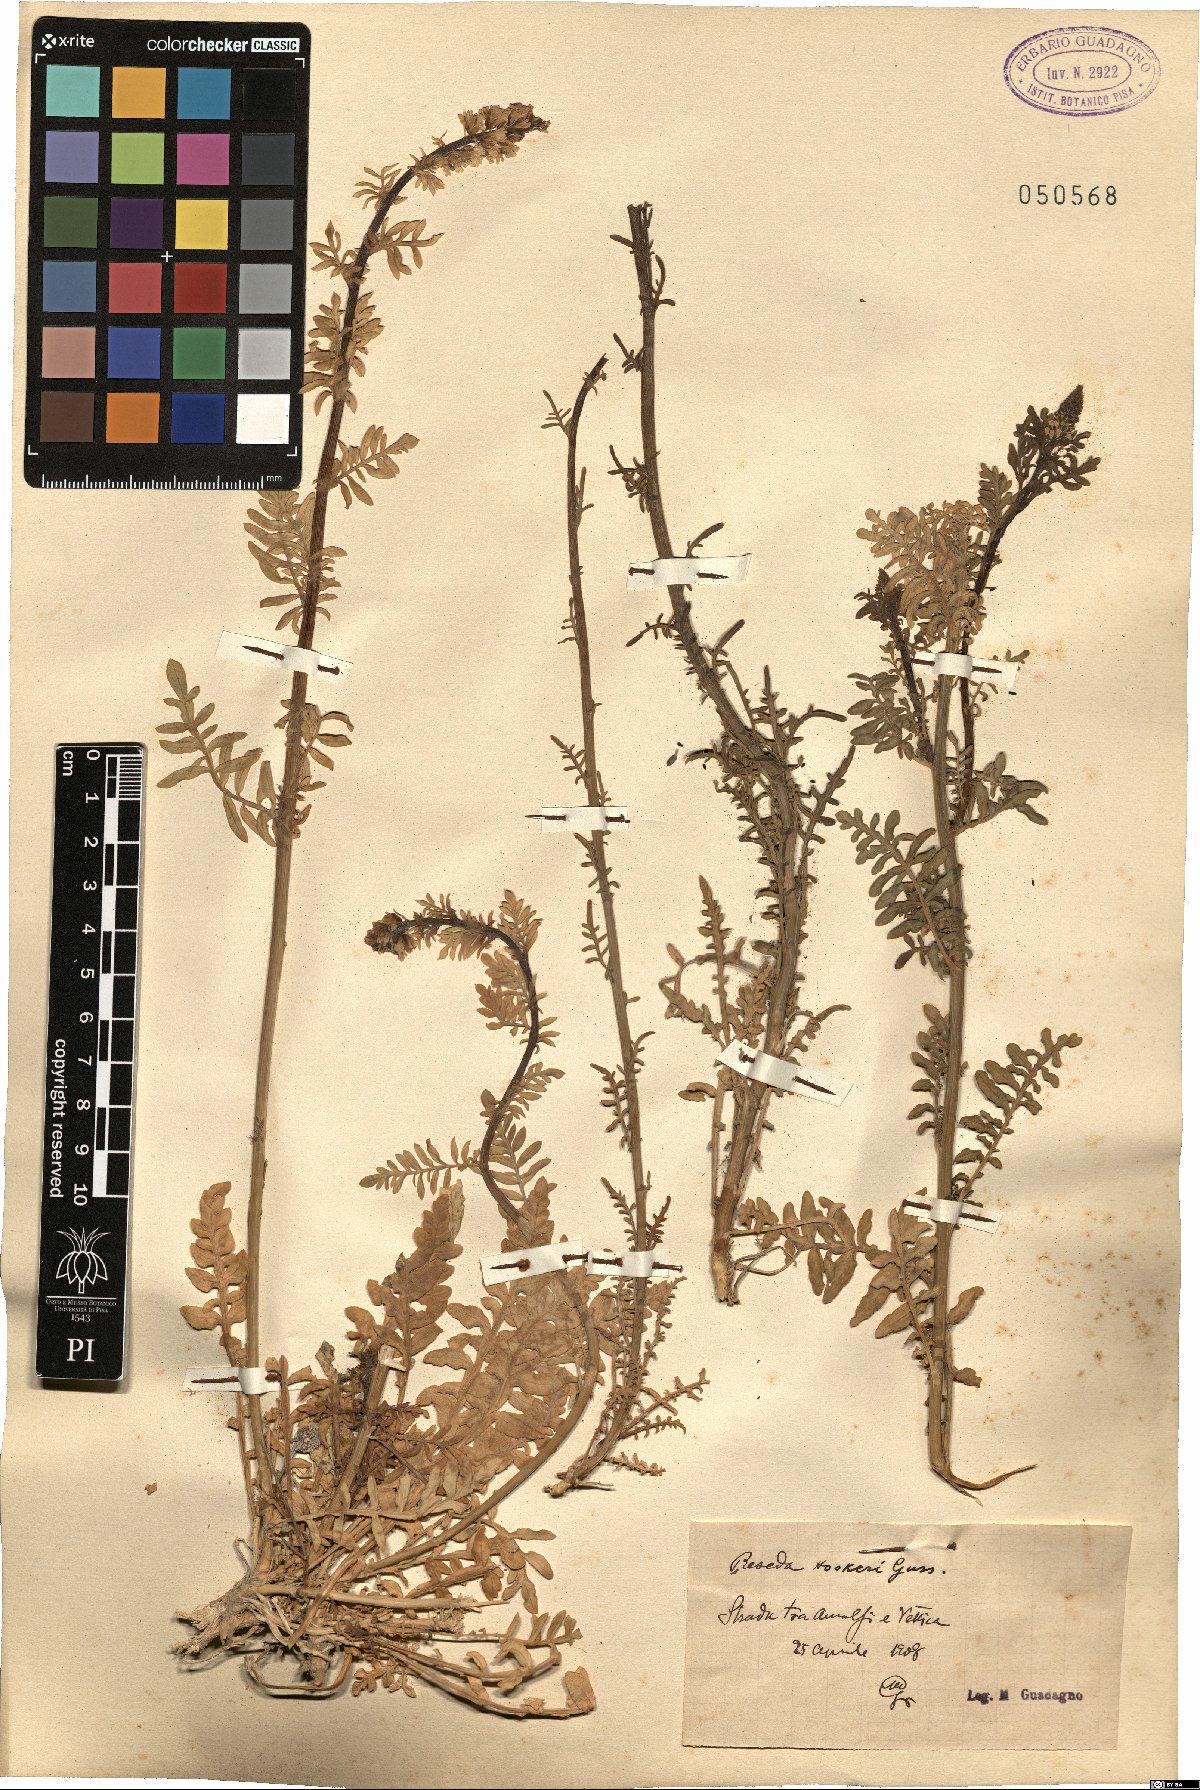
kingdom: Plantae
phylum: Tracheophyta
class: Magnoliopsida
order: Brassicales
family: Resedaceae
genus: Reseda
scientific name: Reseda alba
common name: White mignonette
